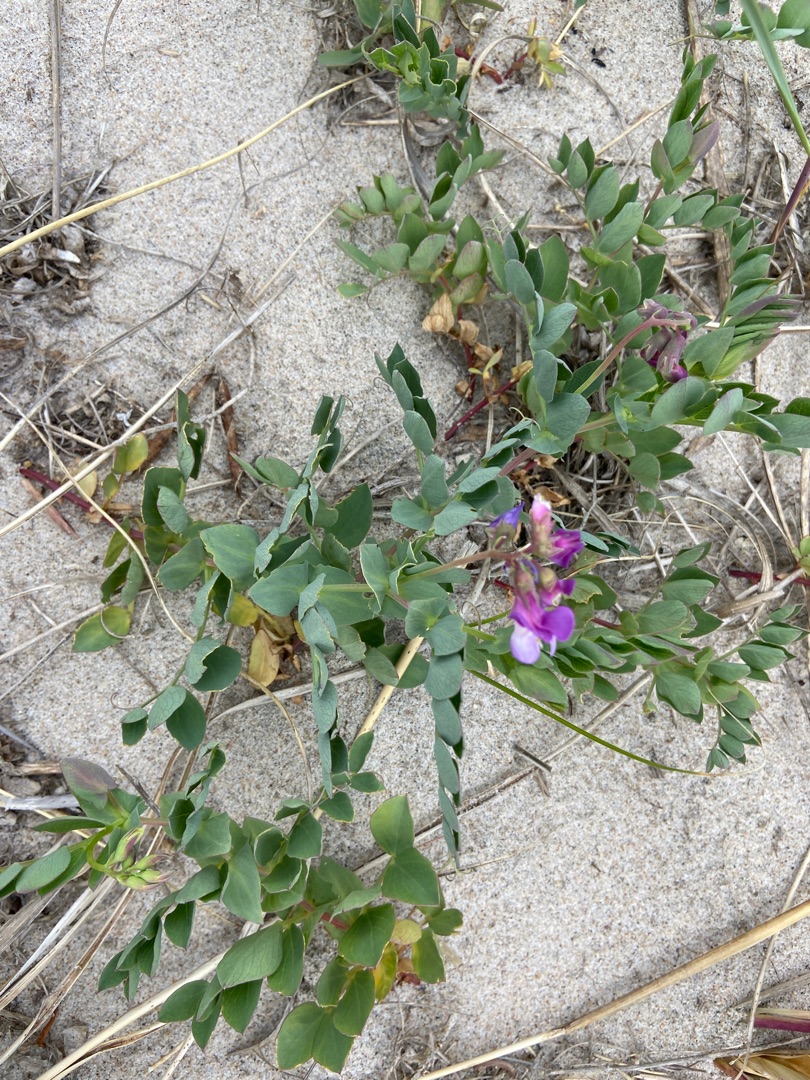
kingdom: Plantae
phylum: Tracheophyta
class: Magnoliopsida
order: Fabales
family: Fabaceae
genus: Lathyrus
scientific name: Lathyrus japonicus
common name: Strand-fladbælg
